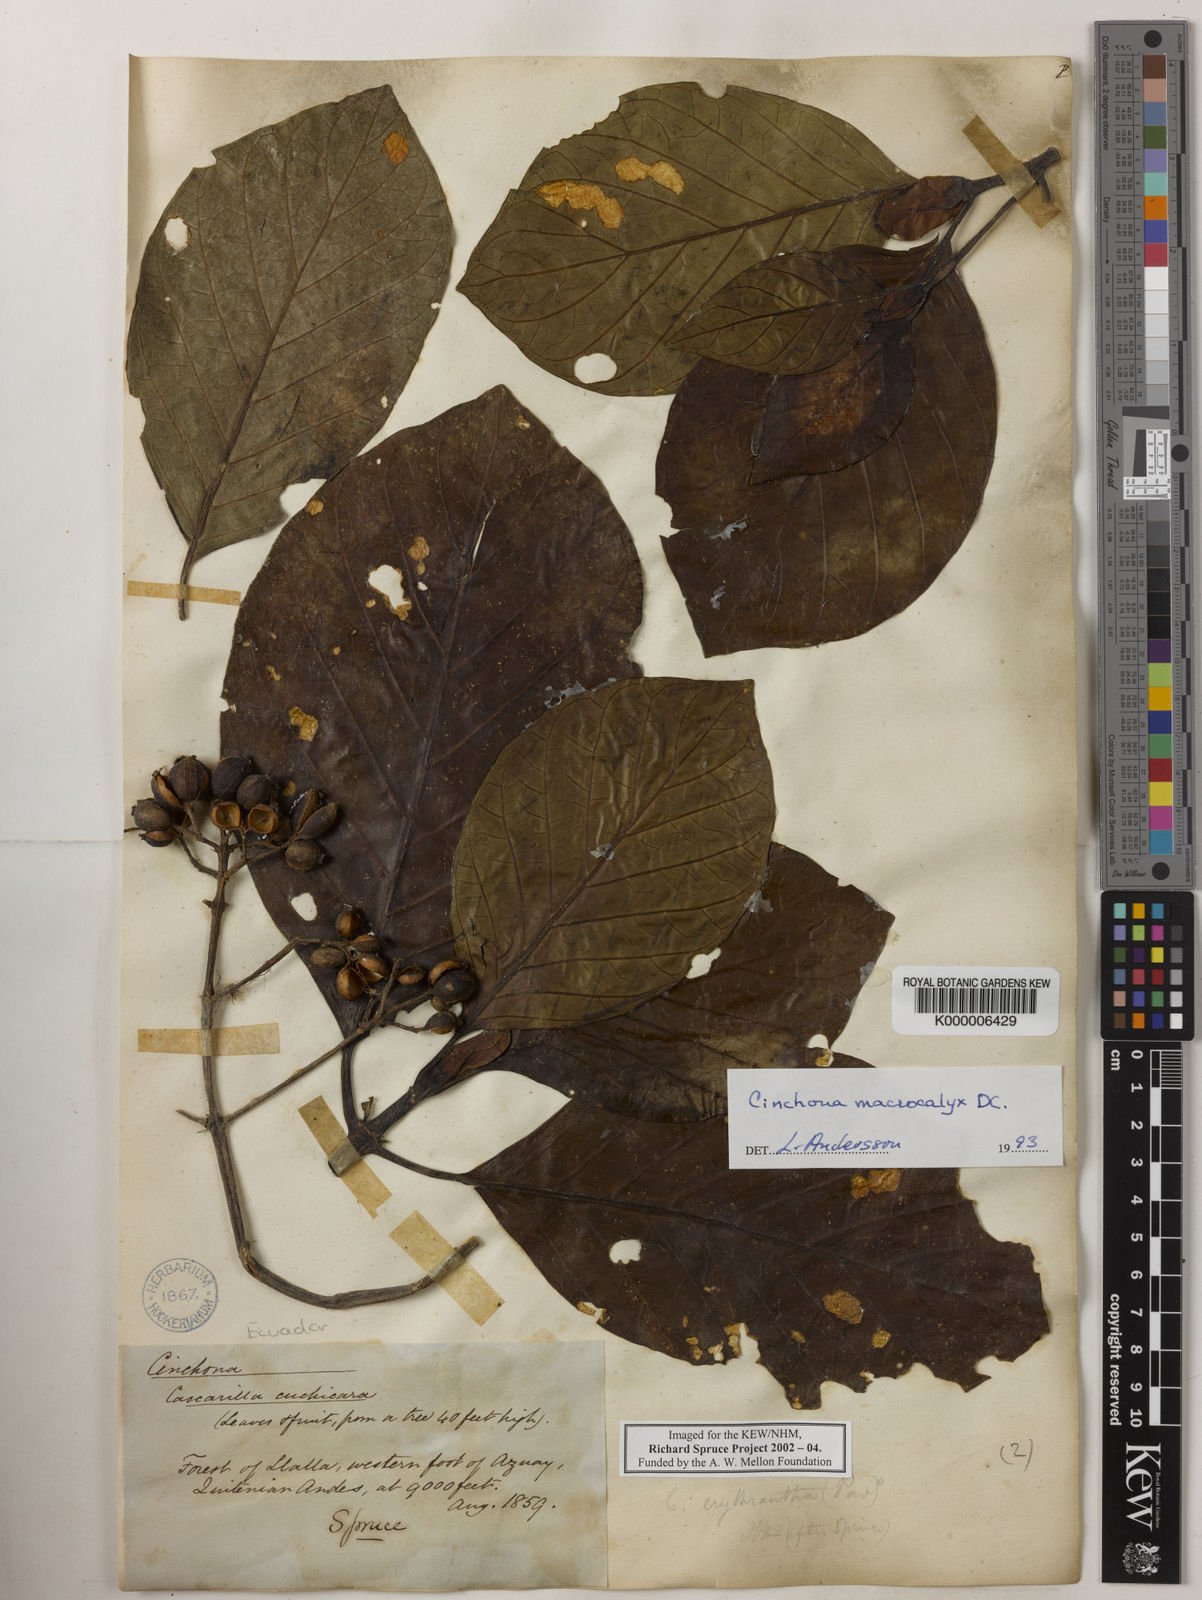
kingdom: Plantae
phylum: Tracheophyta
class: Magnoliopsida
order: Gentianales
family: Rubiaceae
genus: Cinchona
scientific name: Cinchona macrocalyx
